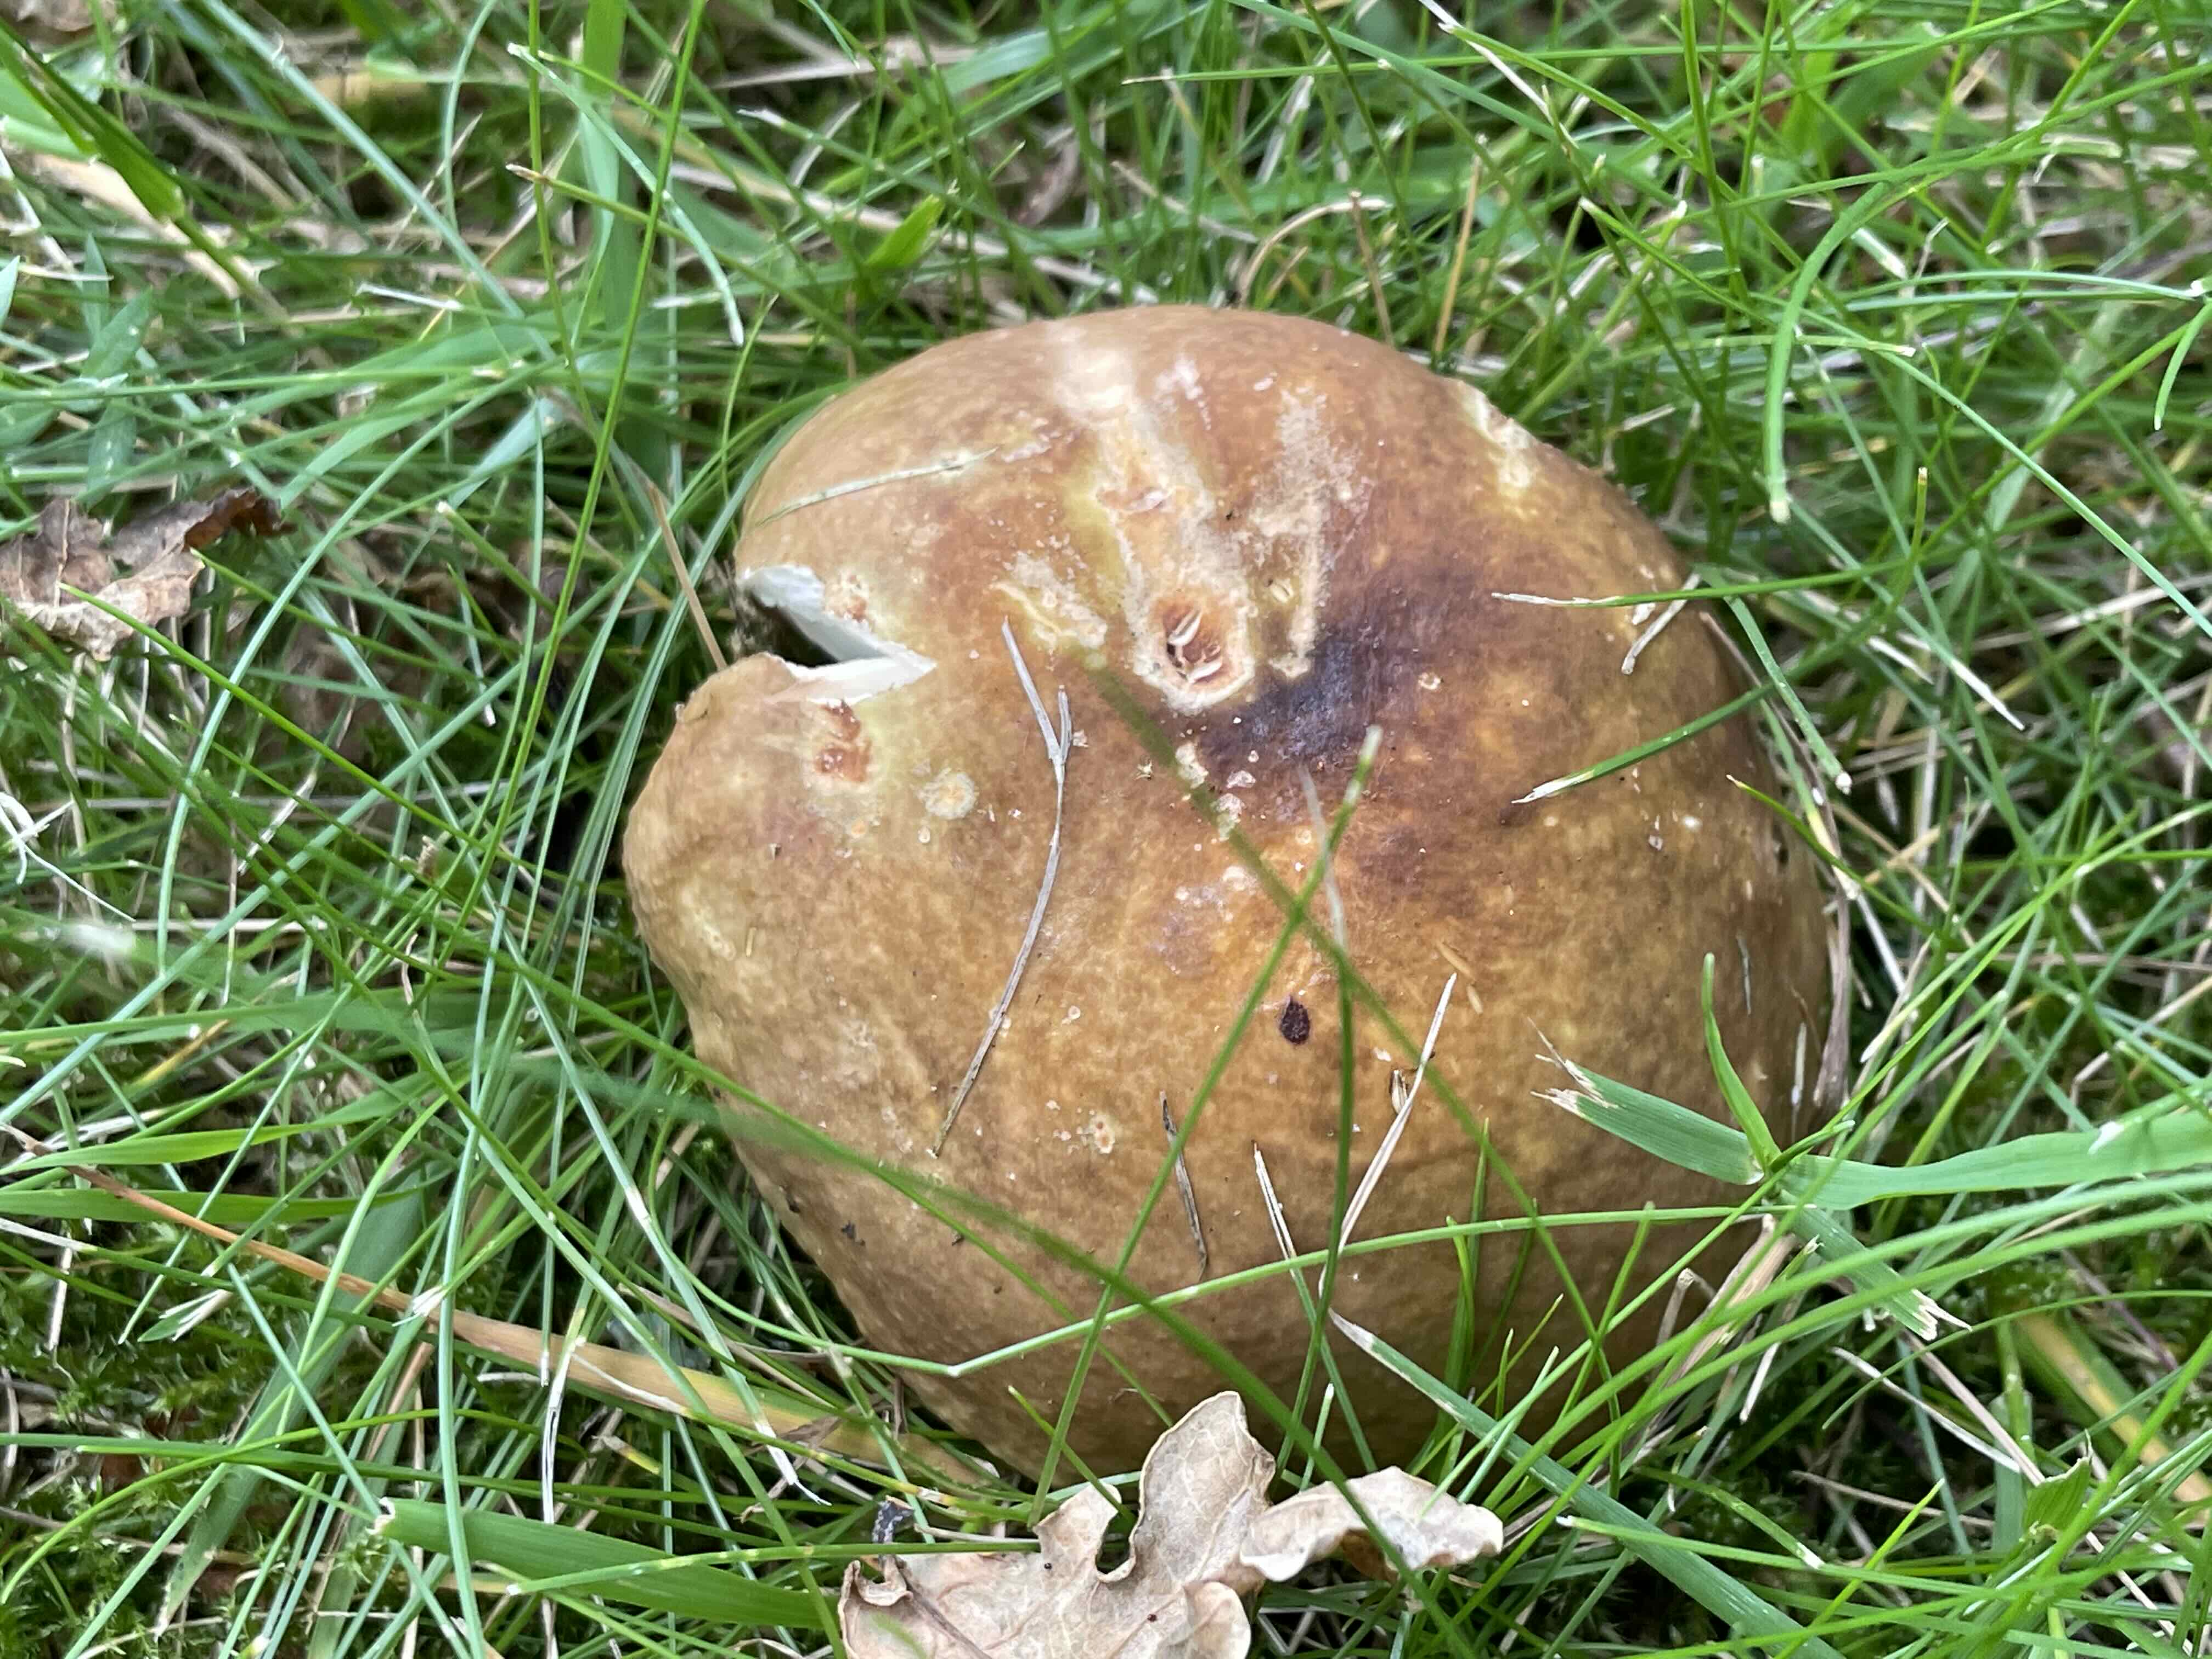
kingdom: Fungi
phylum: Basidiomycota
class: Agaricomycetes
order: Russulales
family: Russulaceae
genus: Russula
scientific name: Russula
